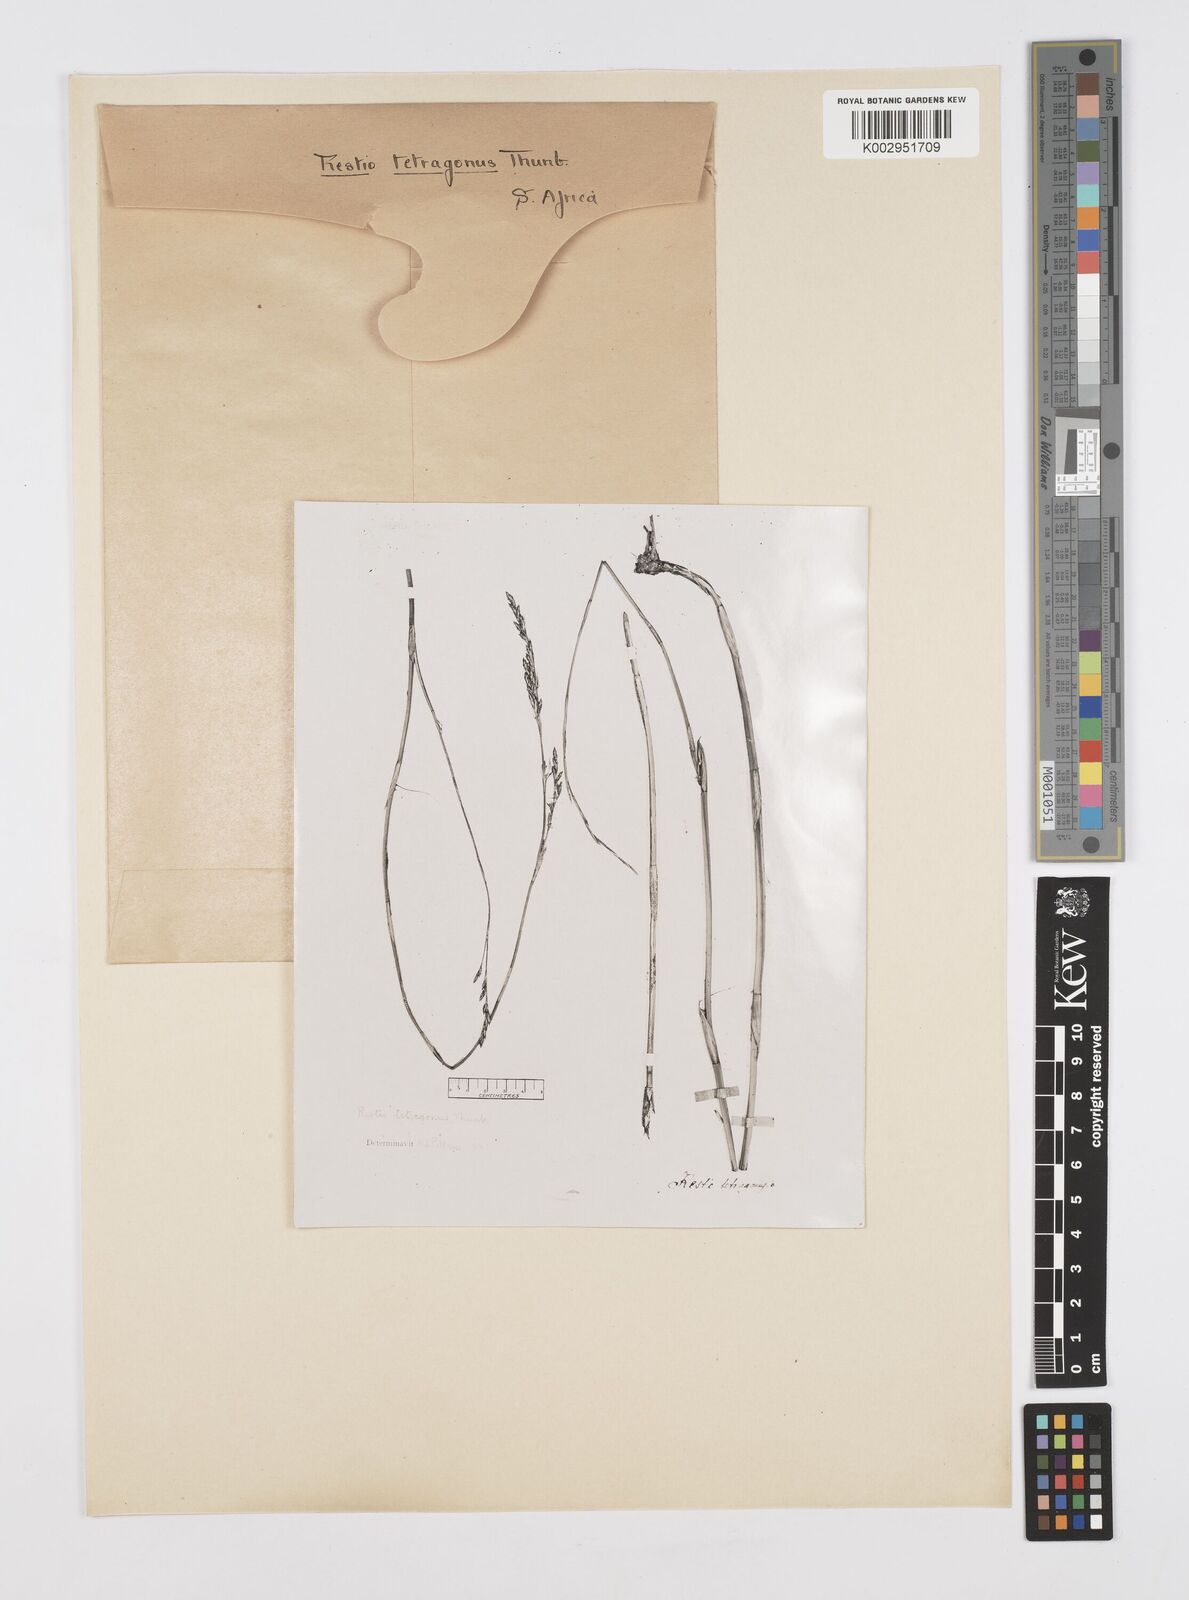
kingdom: Plantae
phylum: Tracheophyta
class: Liliopsida
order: Poales
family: Restionaceae
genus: Restio
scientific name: Restio tetragonus
